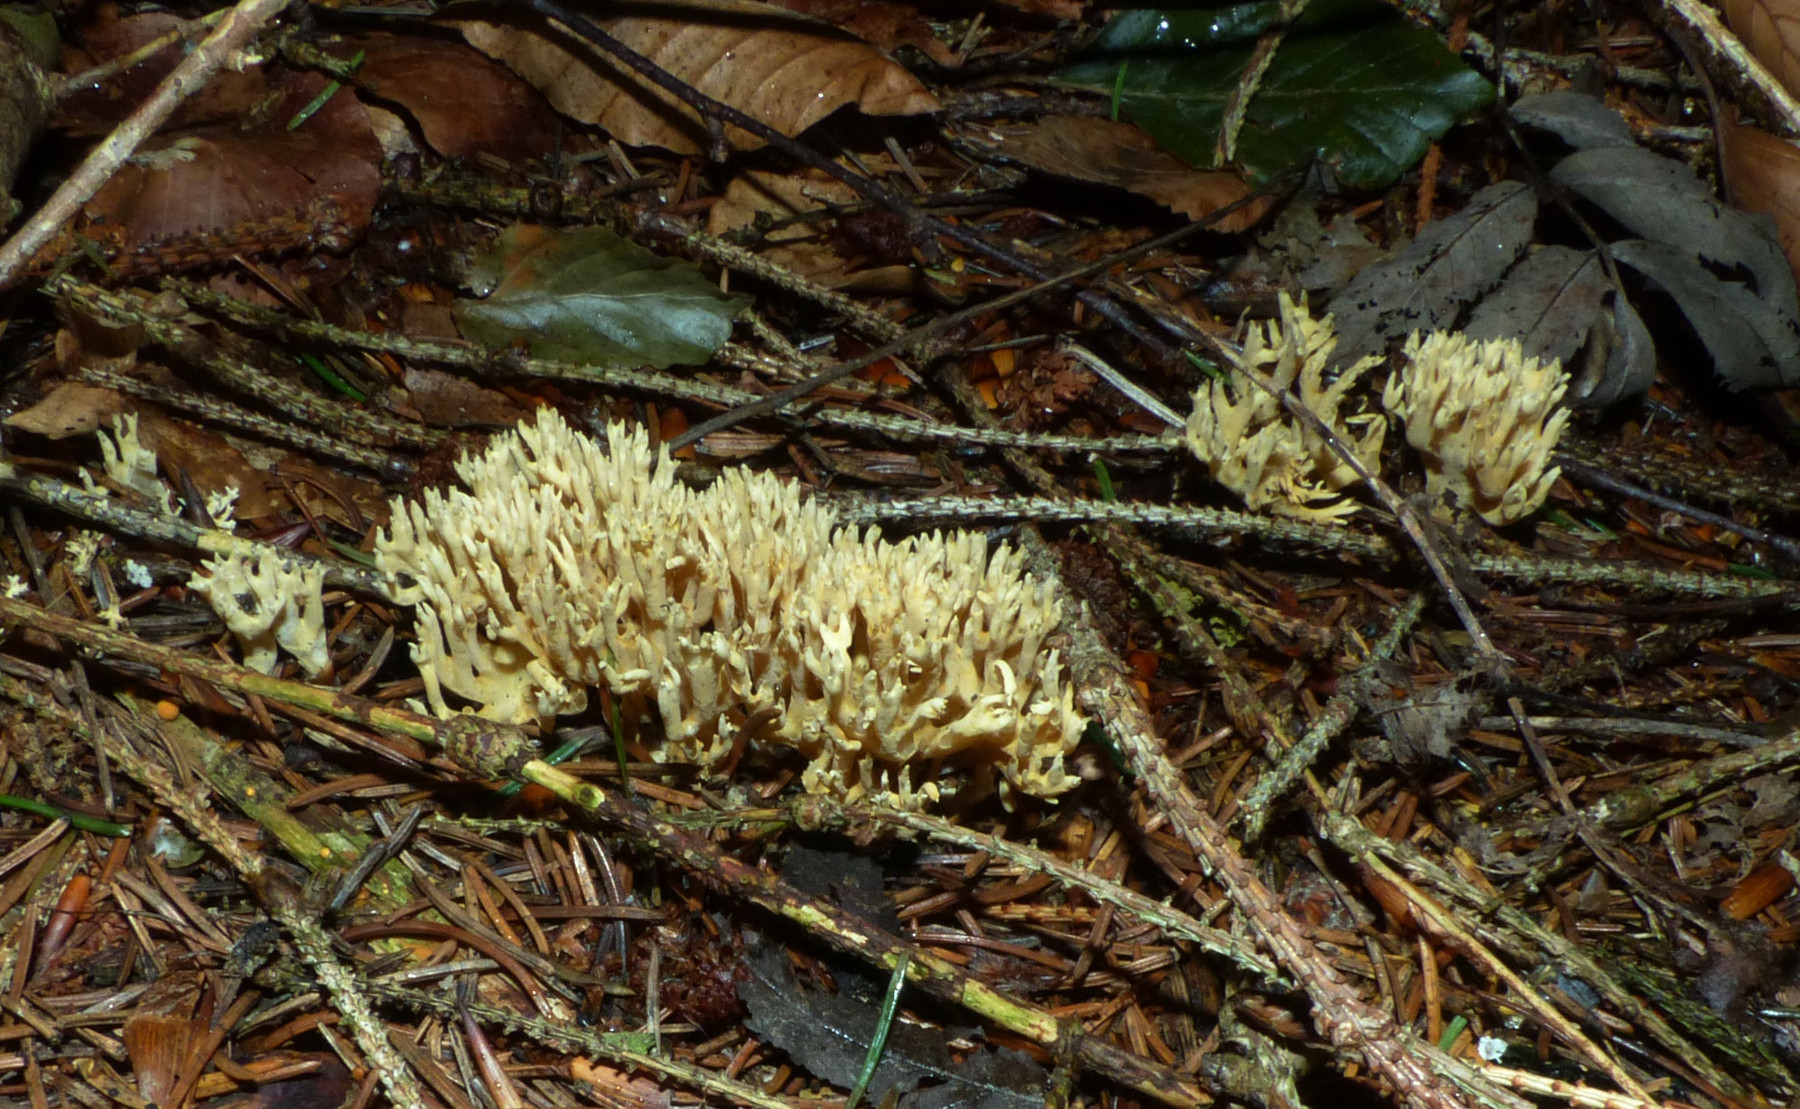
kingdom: Fungi
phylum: Basidiomycota
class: Agaricomycetes
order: Gomphales
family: Gomphaceae
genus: Phaeoclavulina
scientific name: Phaeoclavulina eumorpha
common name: gran-koralsvamp
